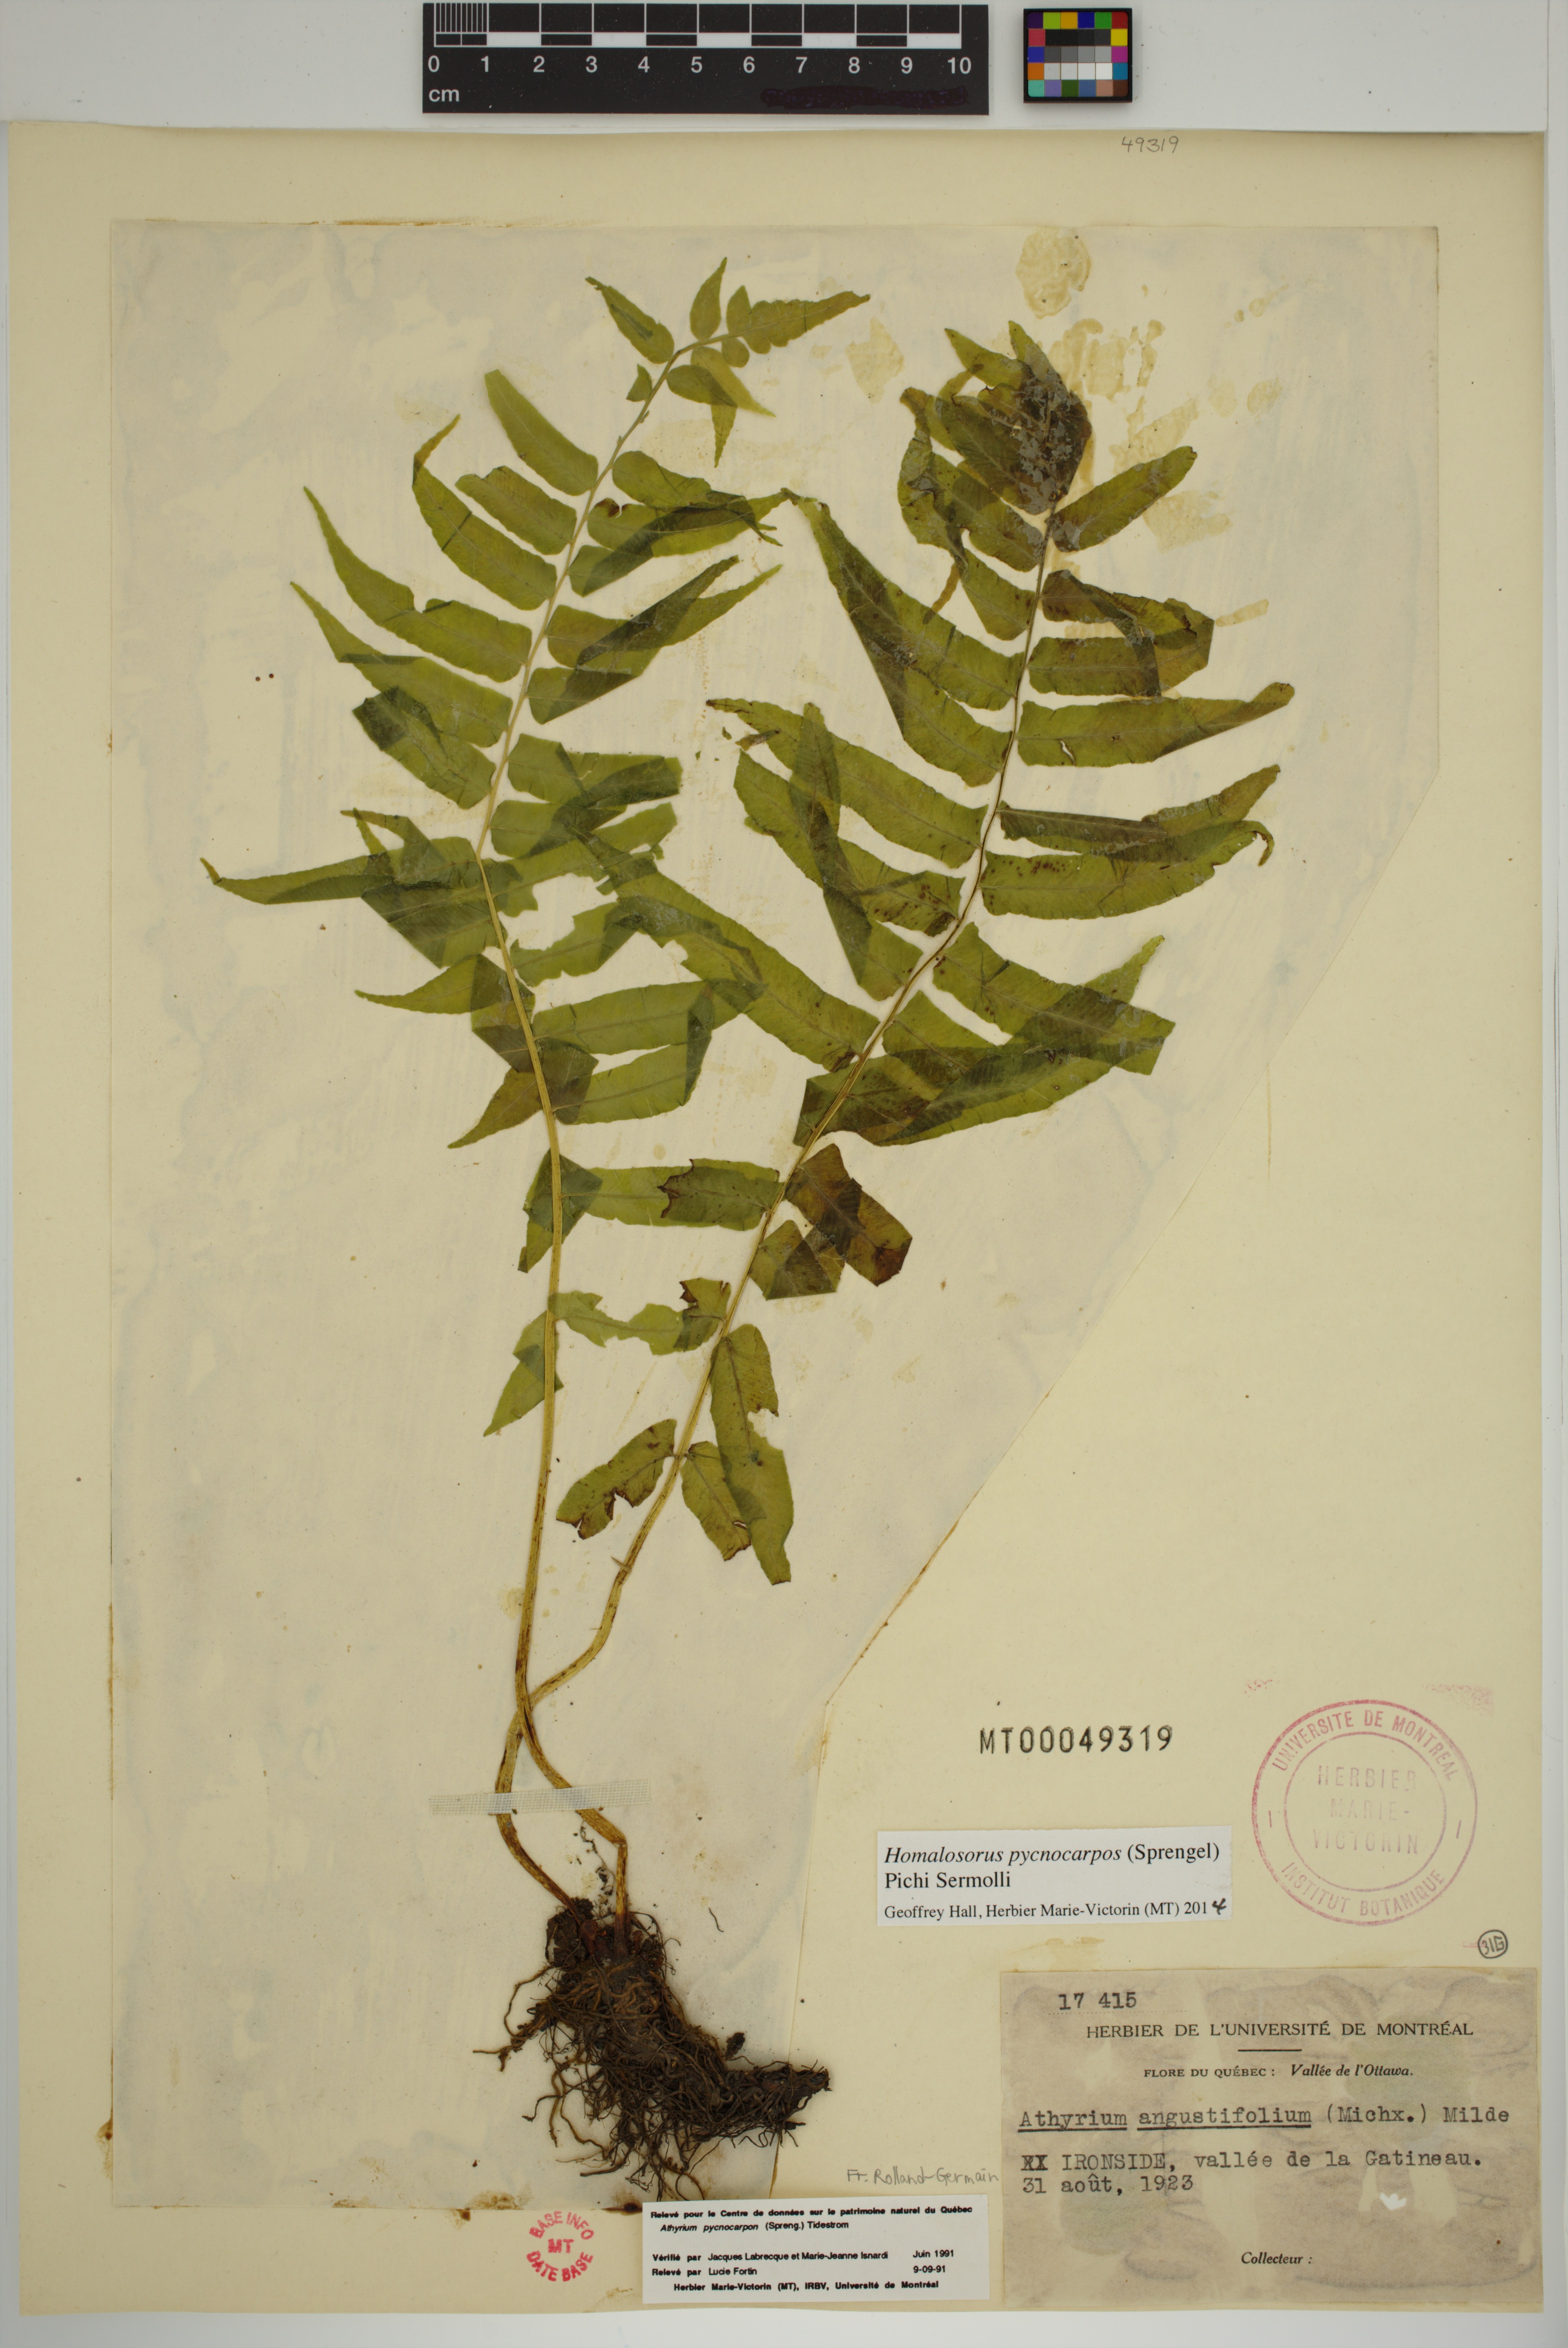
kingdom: Plantae
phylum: Tracheophyta
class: Polypodiopsida
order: Polypodiales
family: Diplaziopsidaceae
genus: Homalosorus
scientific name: Homalosorus pycnocarpos
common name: Glade fern
